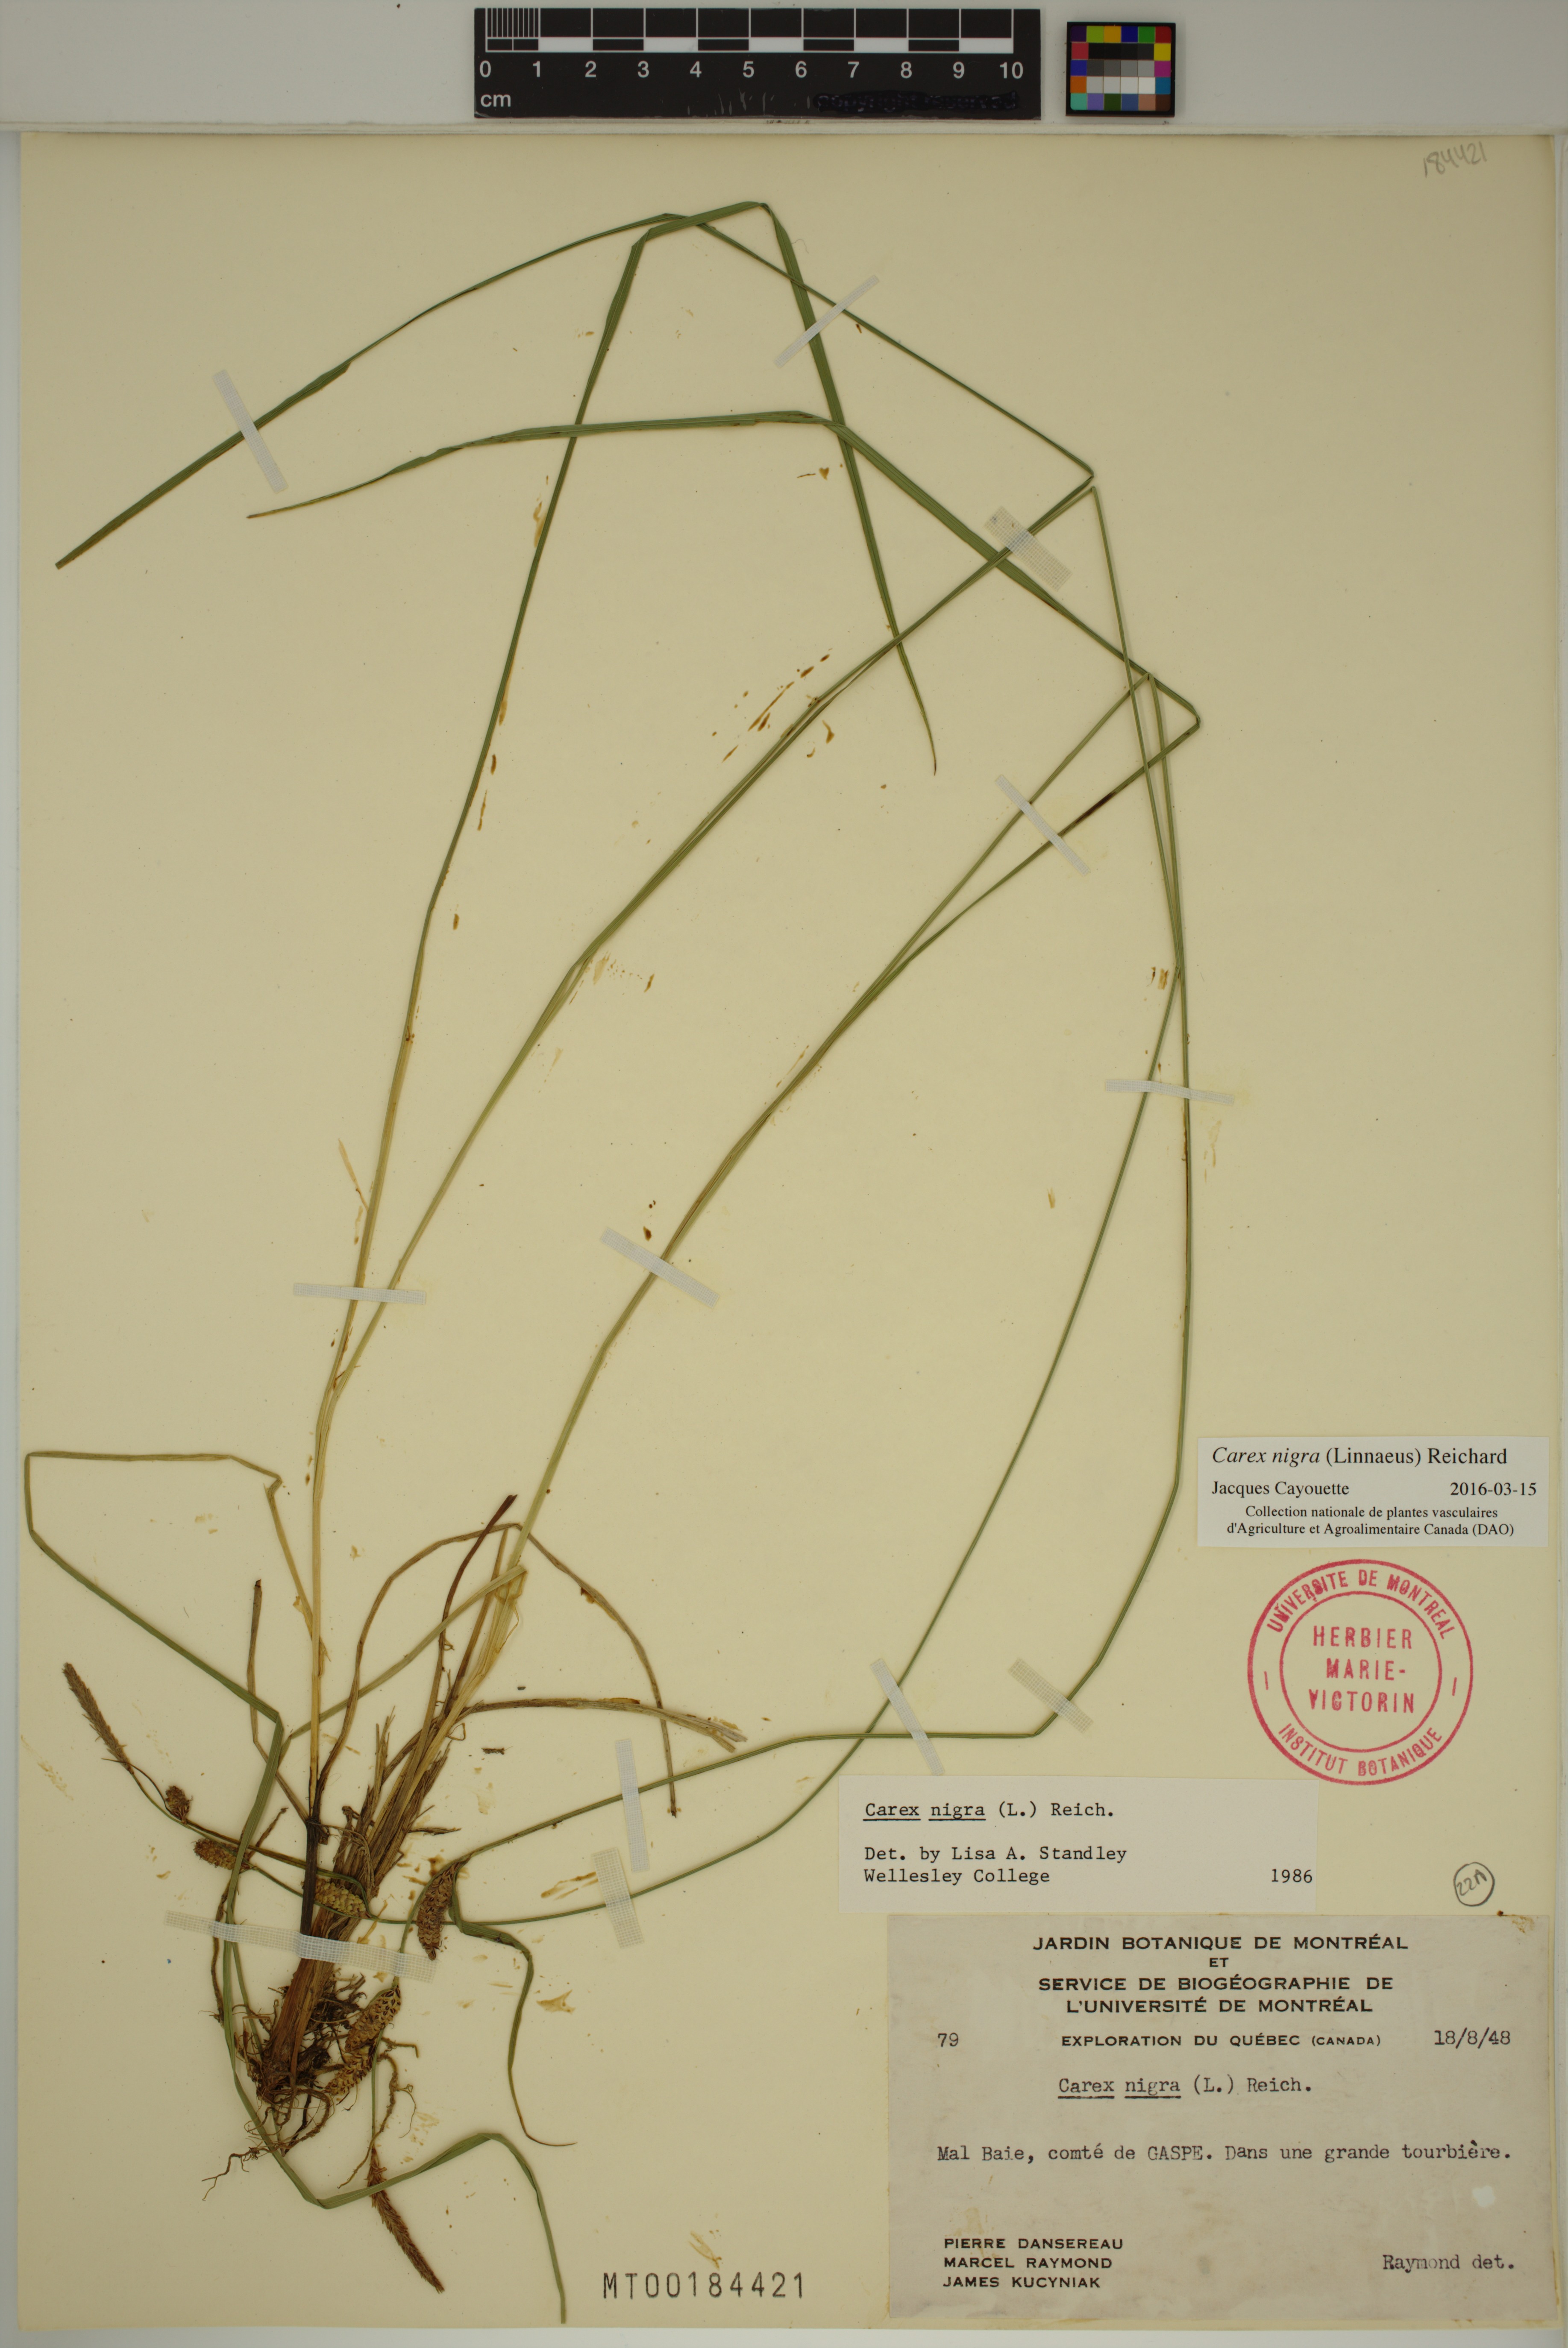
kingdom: Plantae
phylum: Tracheophyta
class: Liliopsida
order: Poales
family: Cyperaceae
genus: Carex
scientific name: Carex nigra
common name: Common sedge
